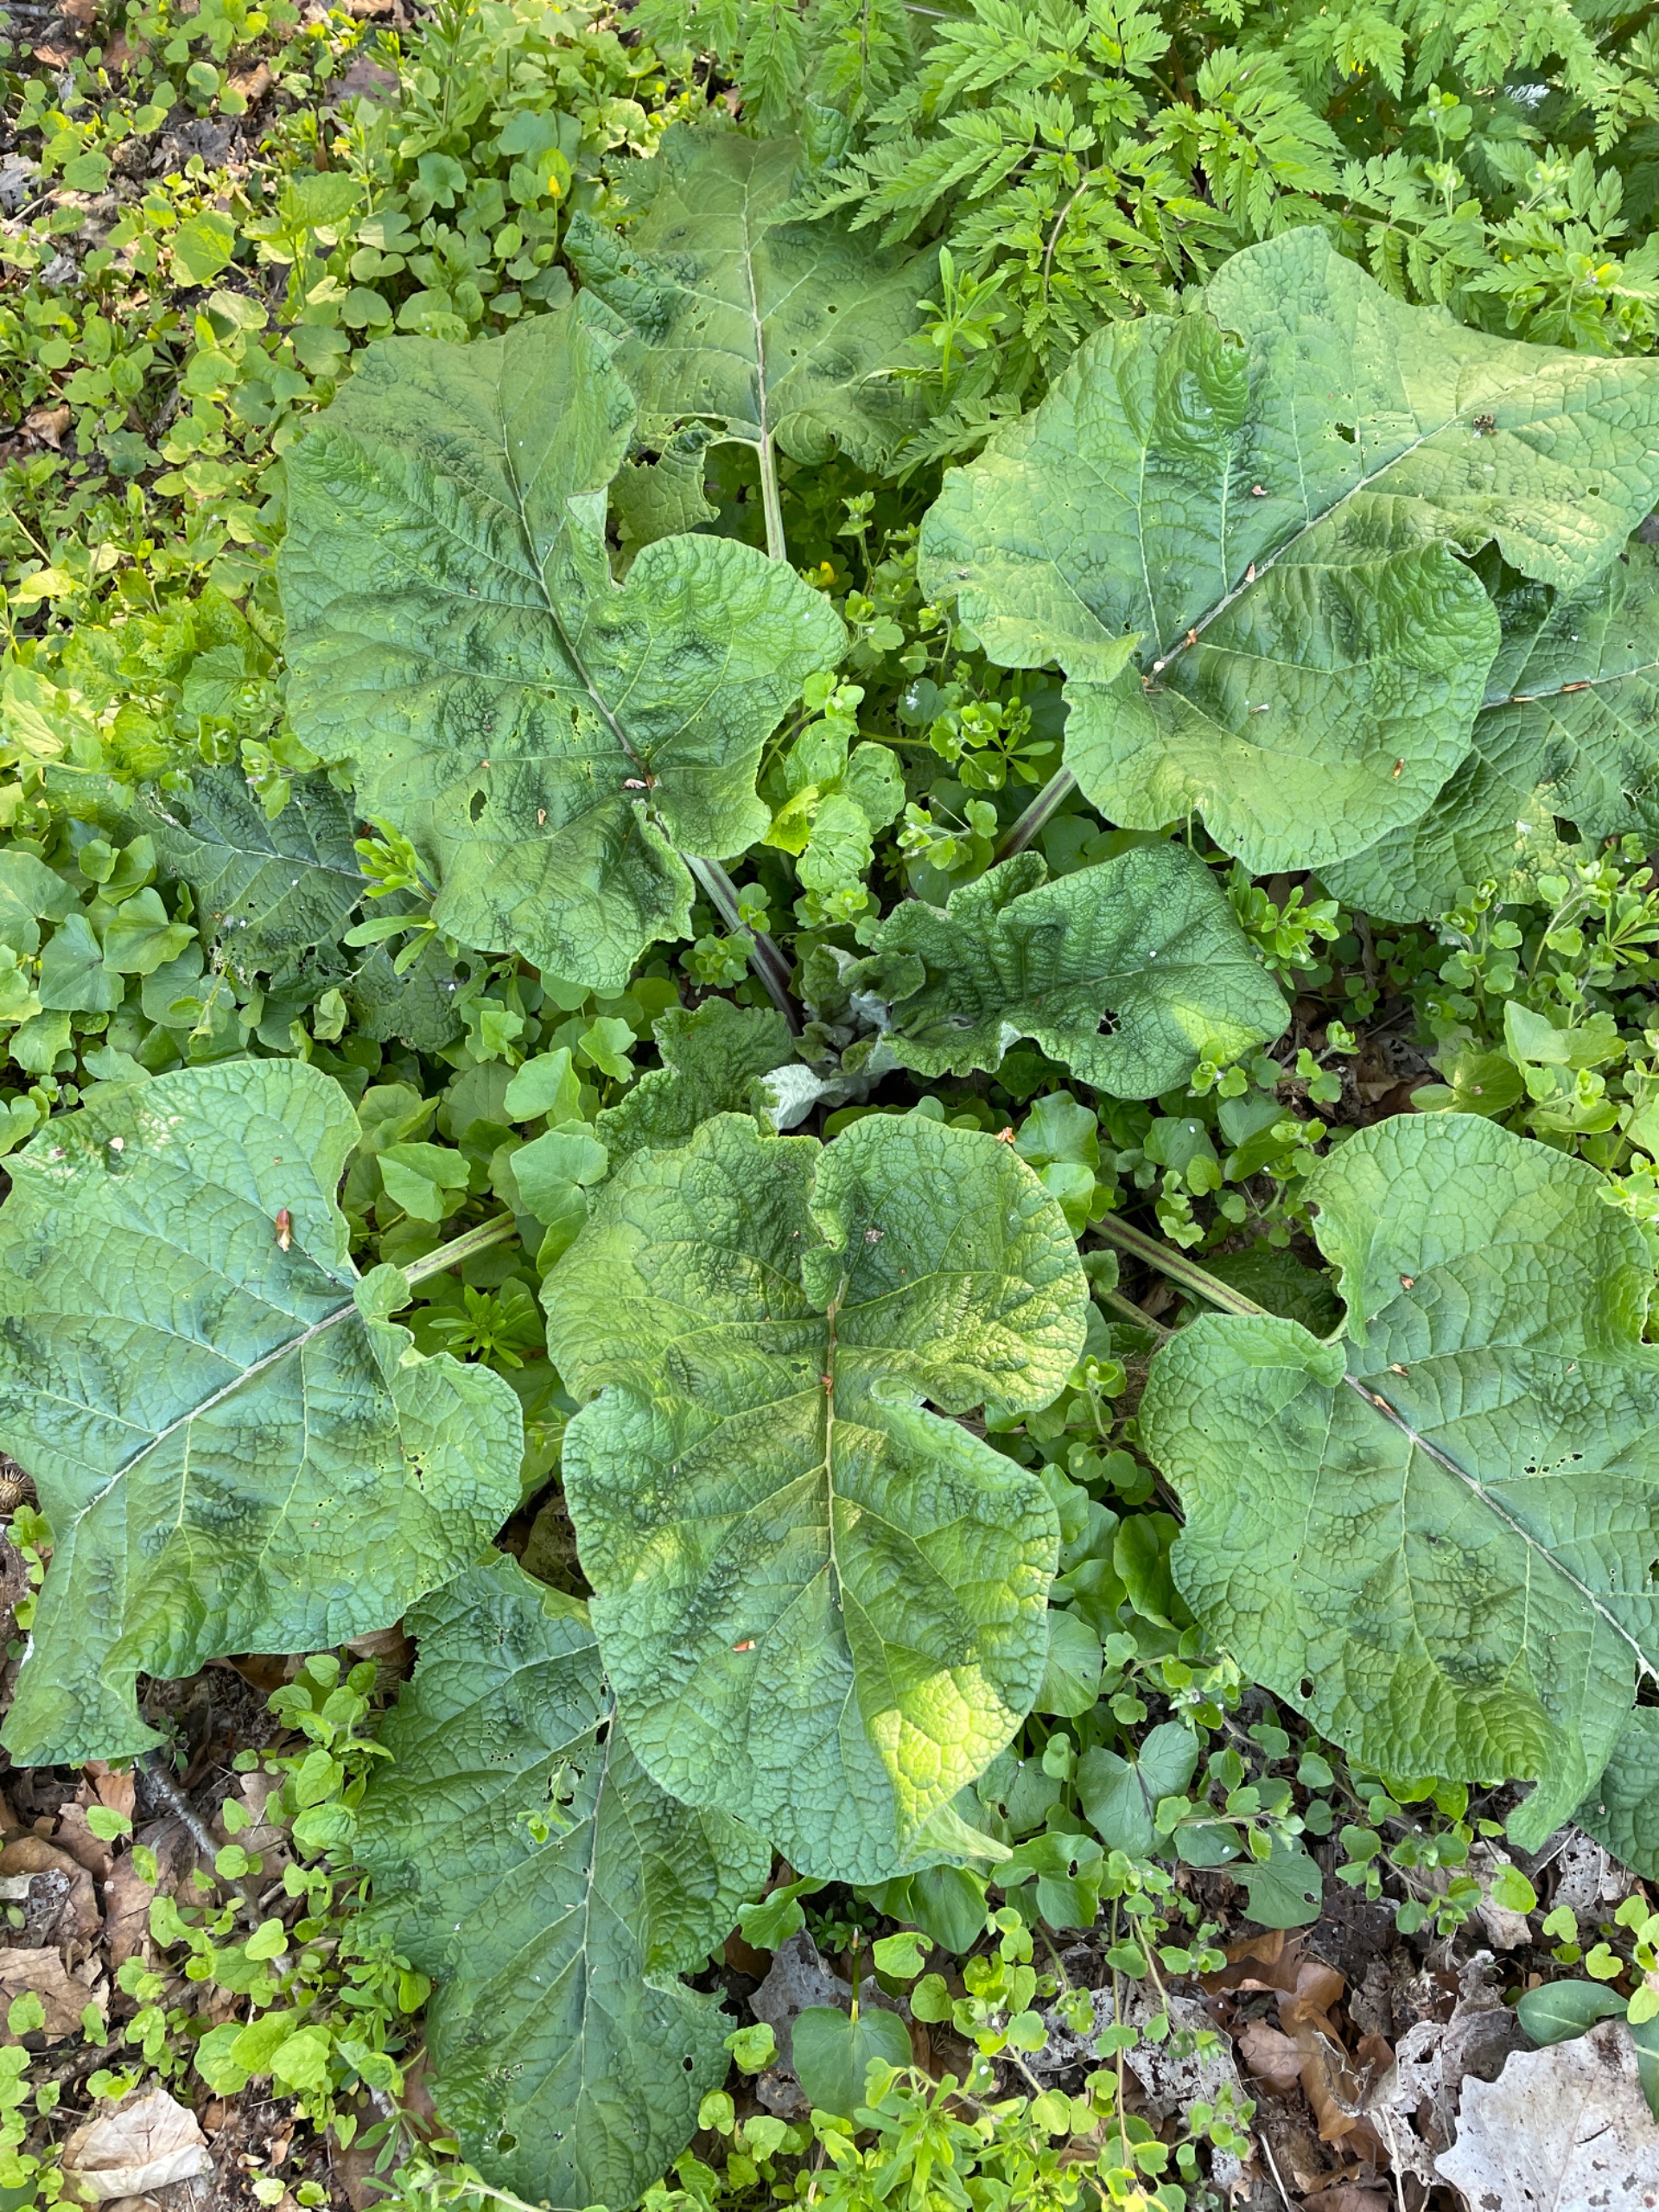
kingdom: Plantae
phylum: Tracheophyta
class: Magnoliopsida
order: Asterales
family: Asteraceae
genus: Arctium
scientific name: Arctium
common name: Burreslægten
